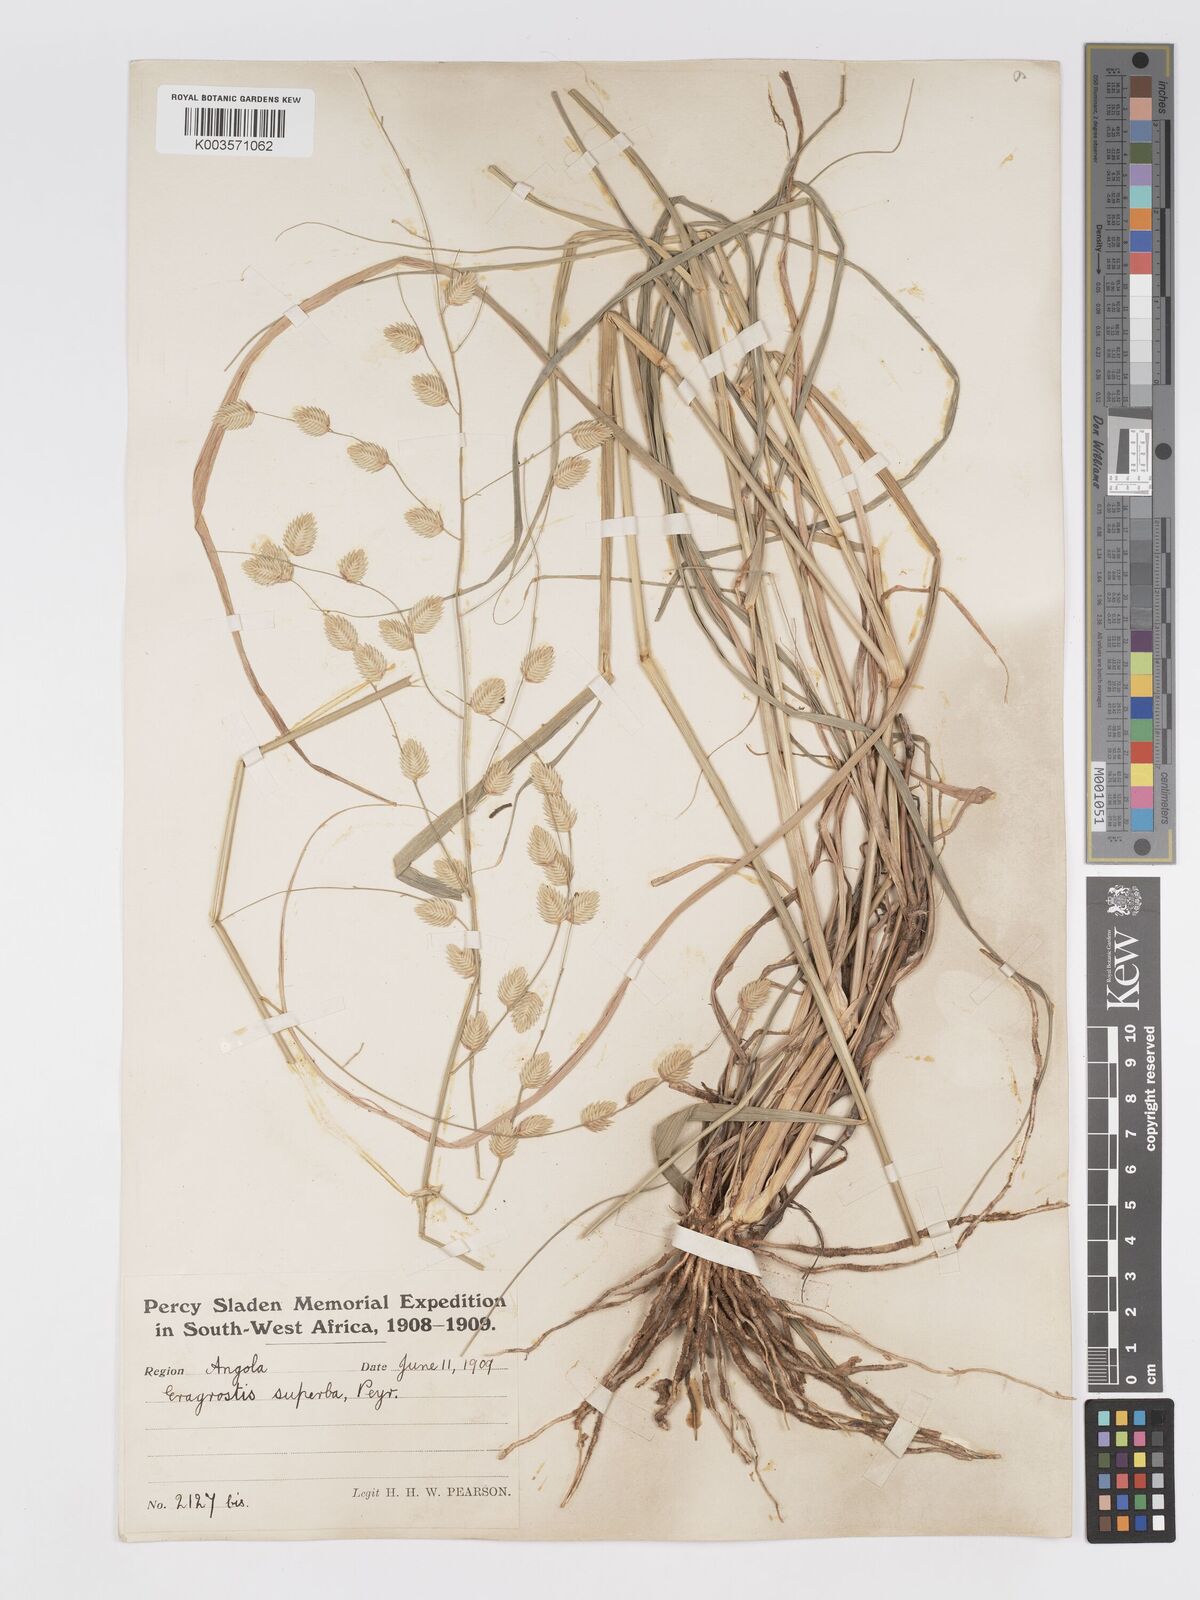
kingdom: Plantae
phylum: Tracheophyta
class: Liliopsida
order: Poales
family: Poaceae
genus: Eragrostis
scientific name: Eragrostis superba
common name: Wilman lovegrass
